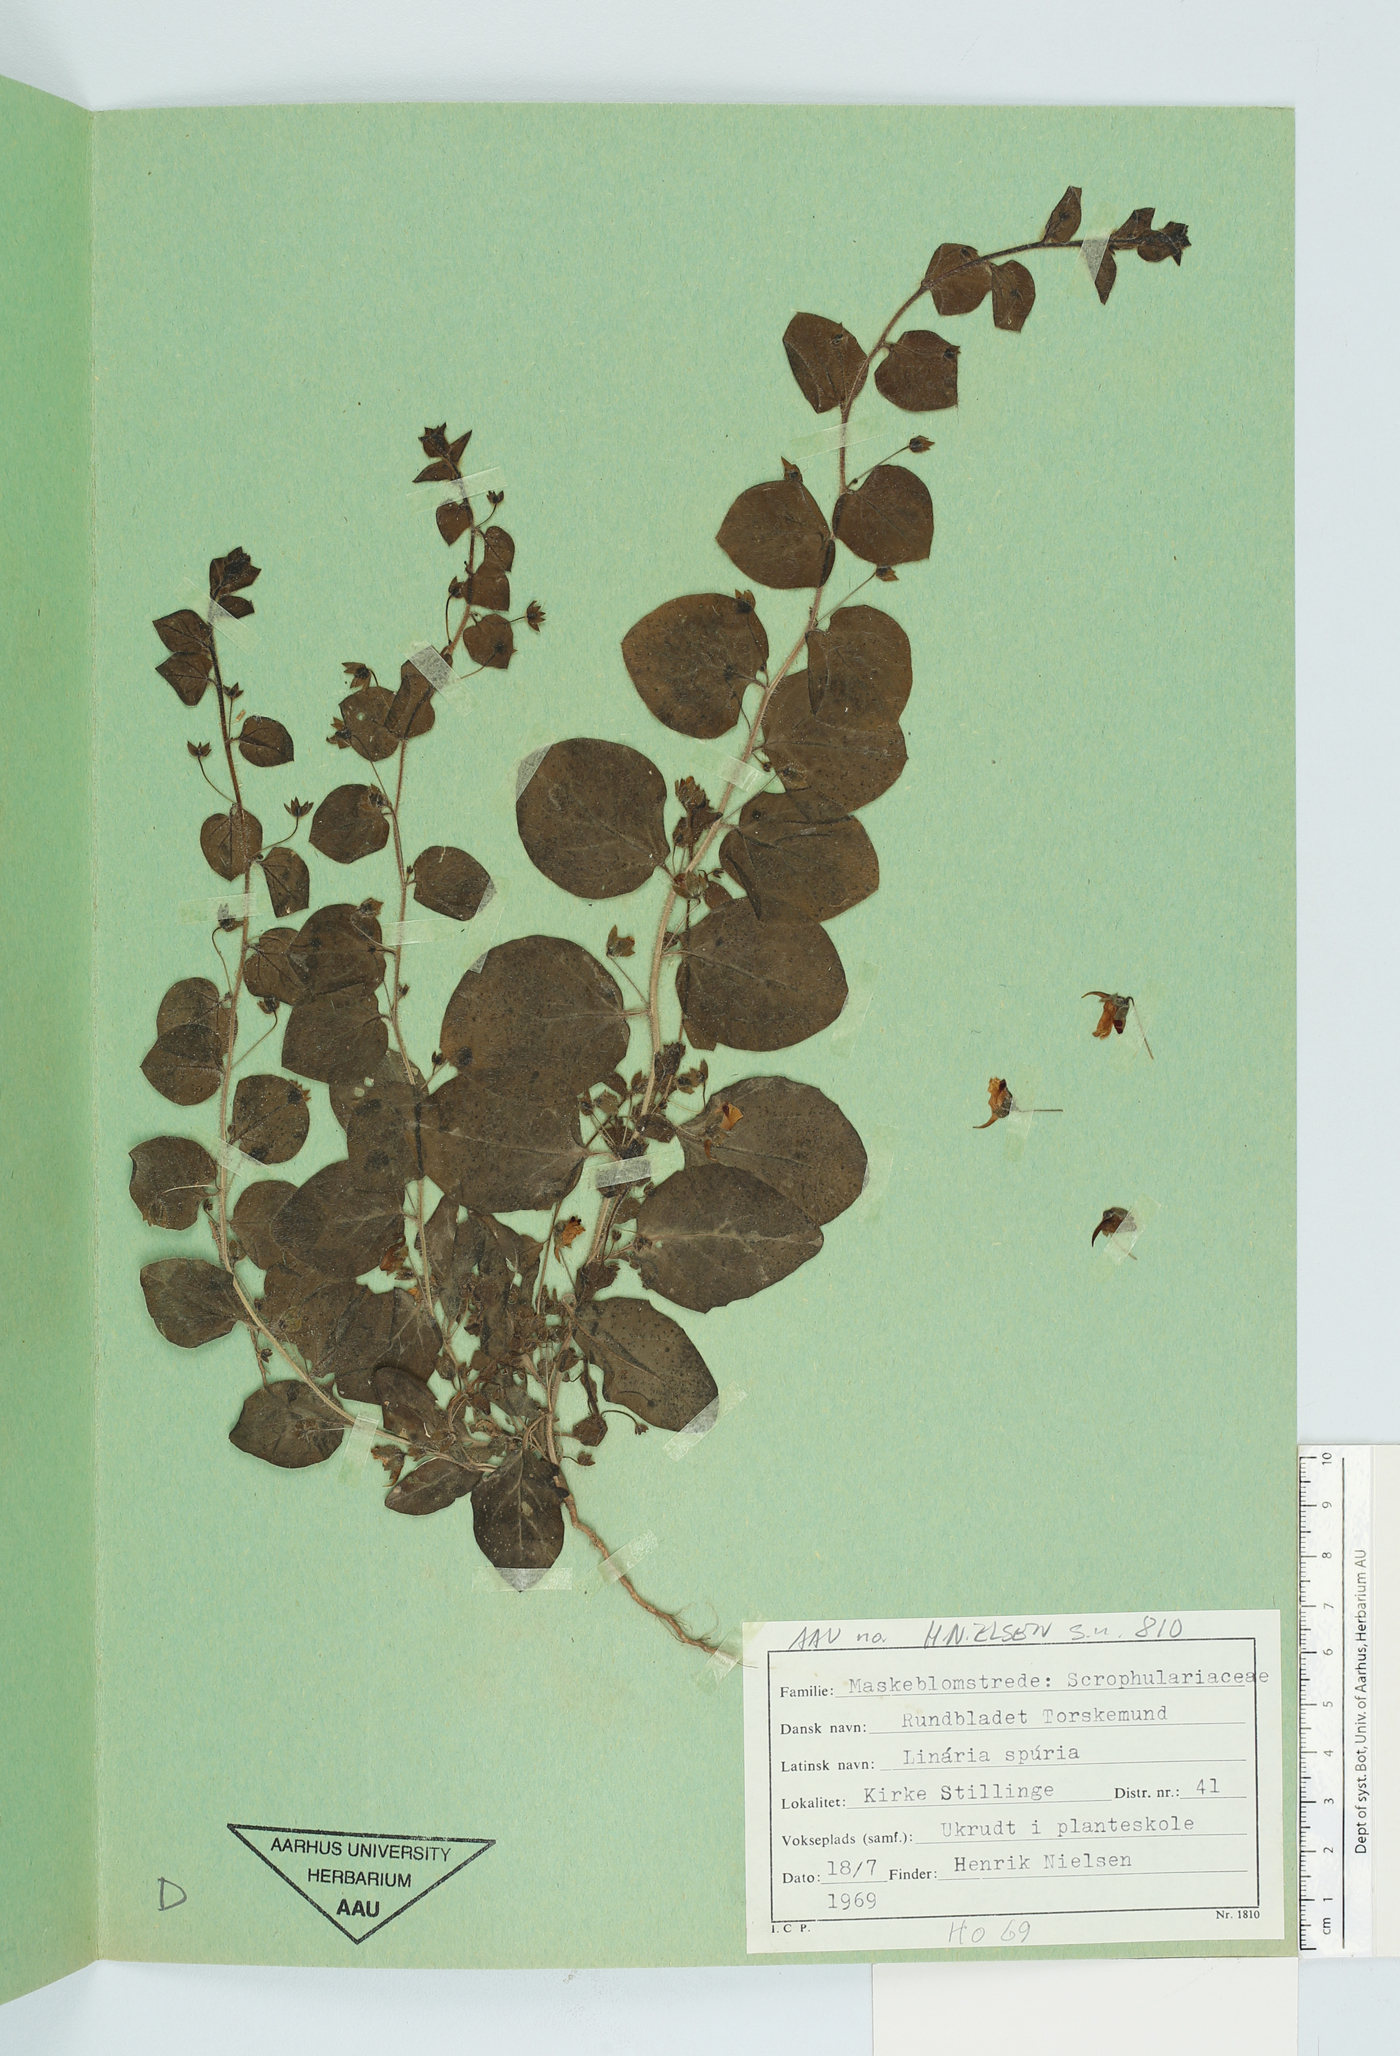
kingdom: Plantae
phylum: Tracheophyta
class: Magnoliopsida
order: Lamiales
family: Plantaginaceae
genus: Kickxia
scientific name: Kickxia spuria
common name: Round-leaved fluellen
